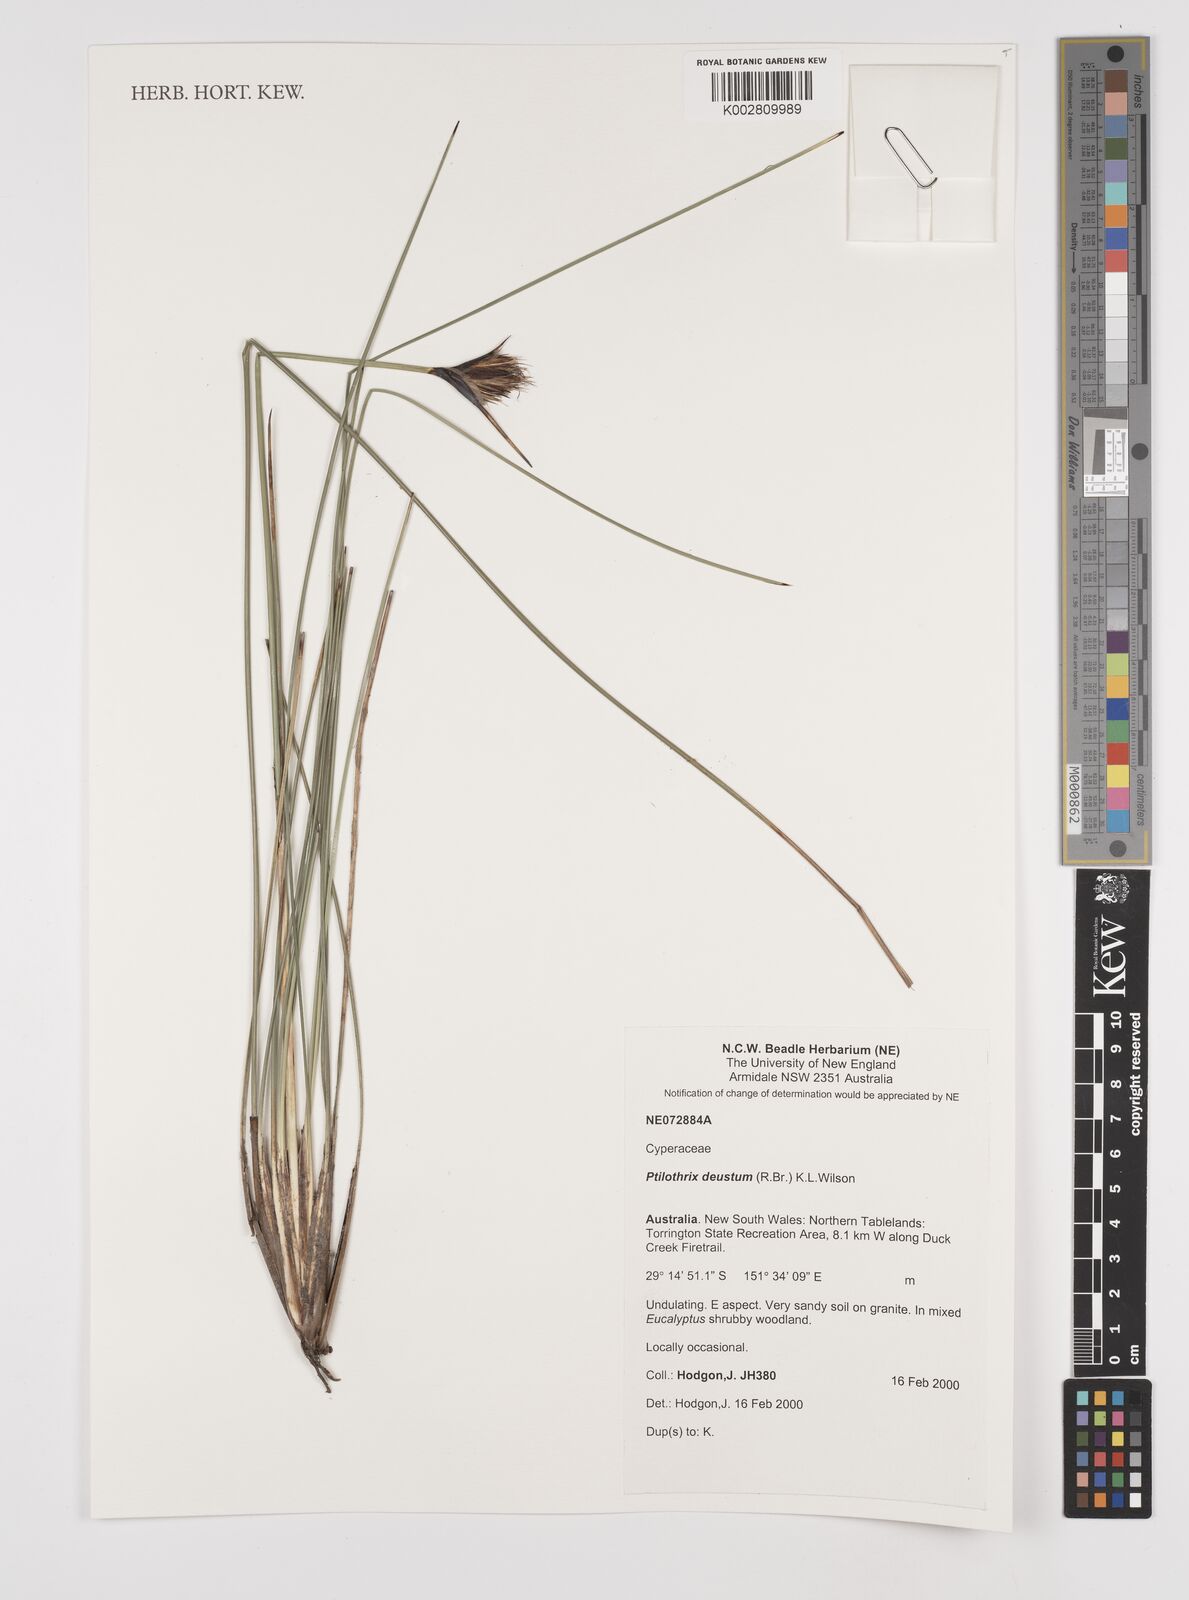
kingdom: Plantae
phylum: Tracheophyta
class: Liliopsida
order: Poales
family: Cyperaceae
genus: Ptilothrix
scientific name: Ptilothrix deusta
